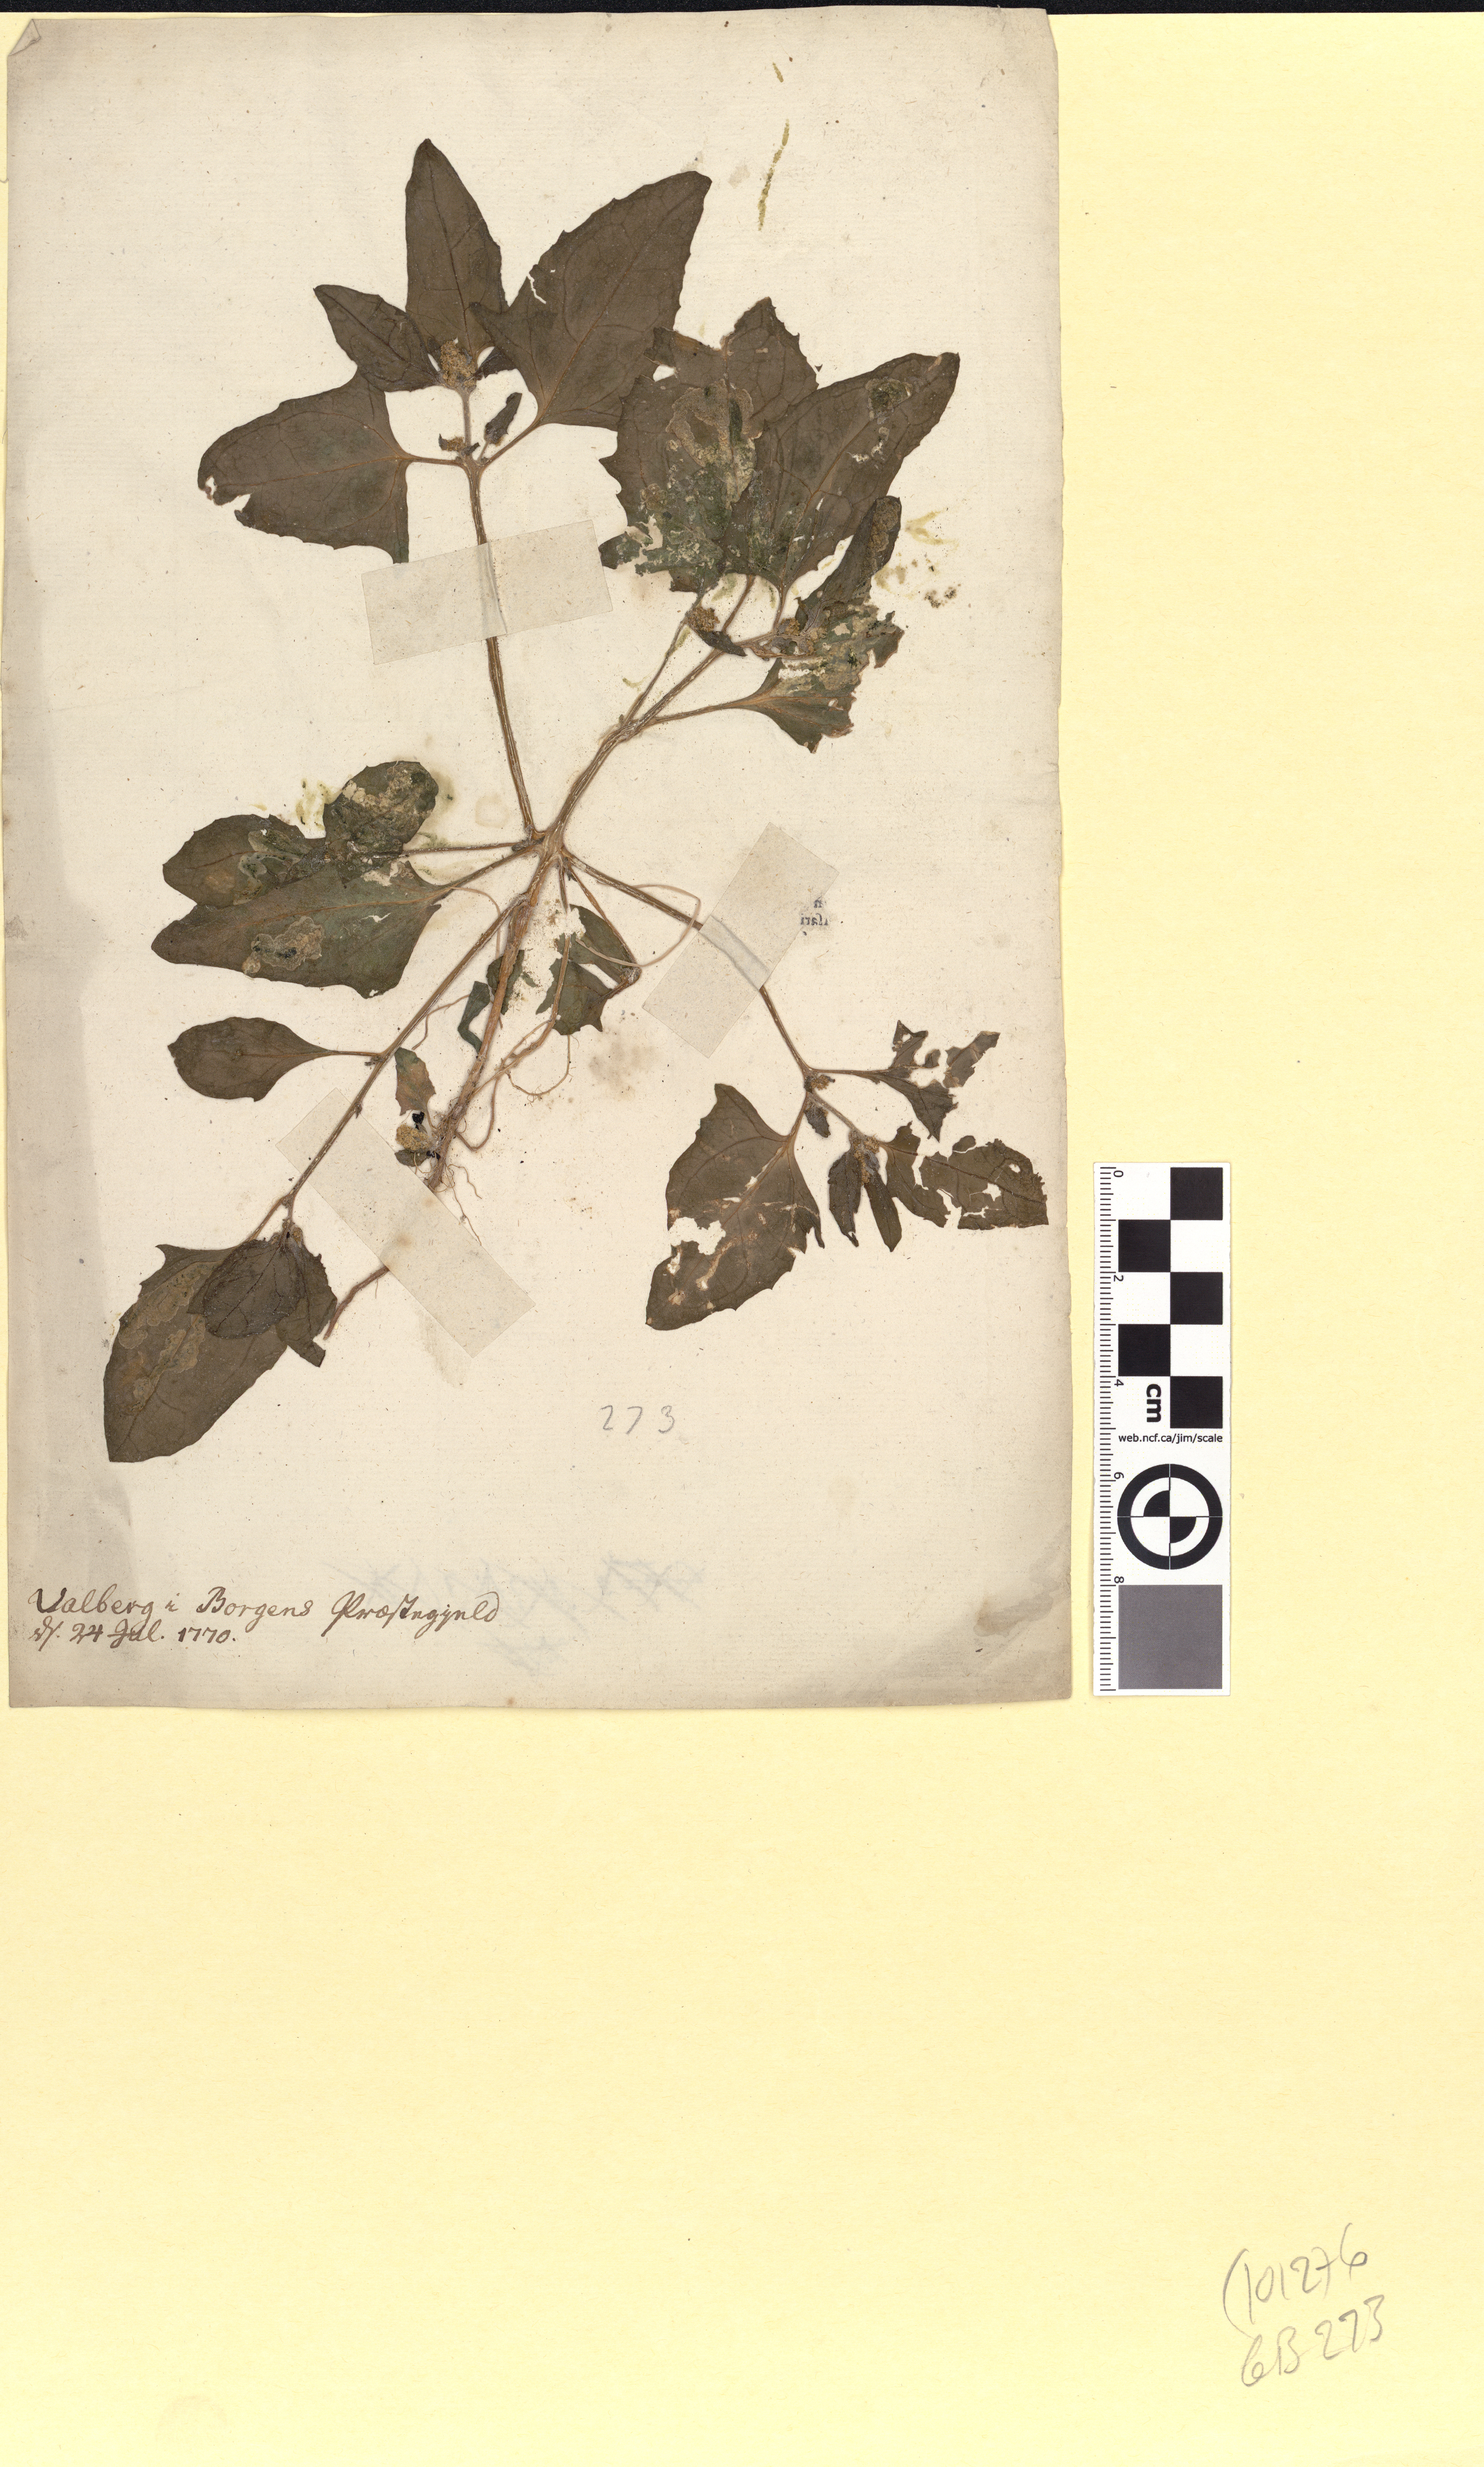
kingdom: Plantae
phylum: Tracheophyta
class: Magnoliopsida
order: Caryophyllales
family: Amaranthaceae
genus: Atriplex
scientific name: Atriplex prostrata
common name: Spear-leaved orache
